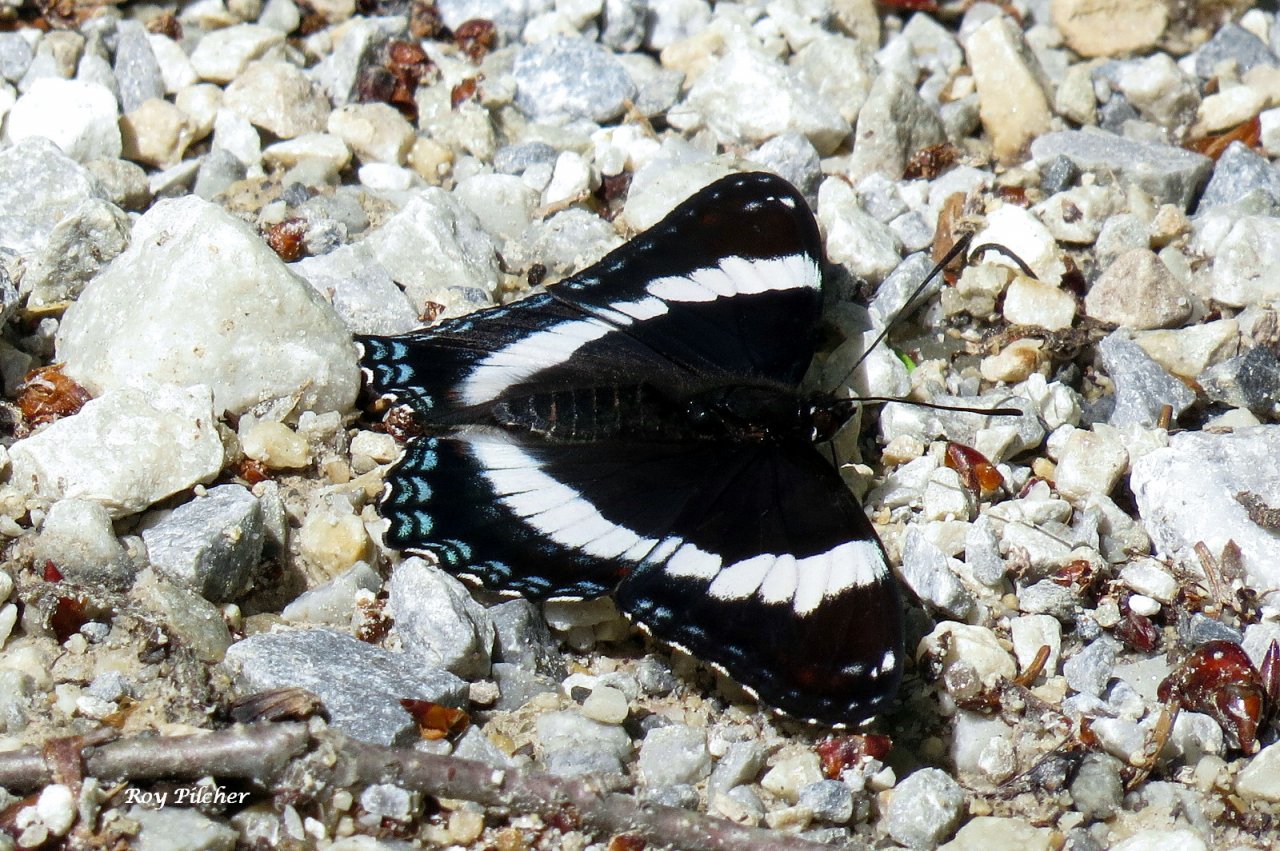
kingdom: Animalia
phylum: Arthropoda
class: Insecta
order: Lepidoptera
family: Nymphalidae
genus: Limenitis
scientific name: Limenitis arthemis
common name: Red-spotted Admiral
